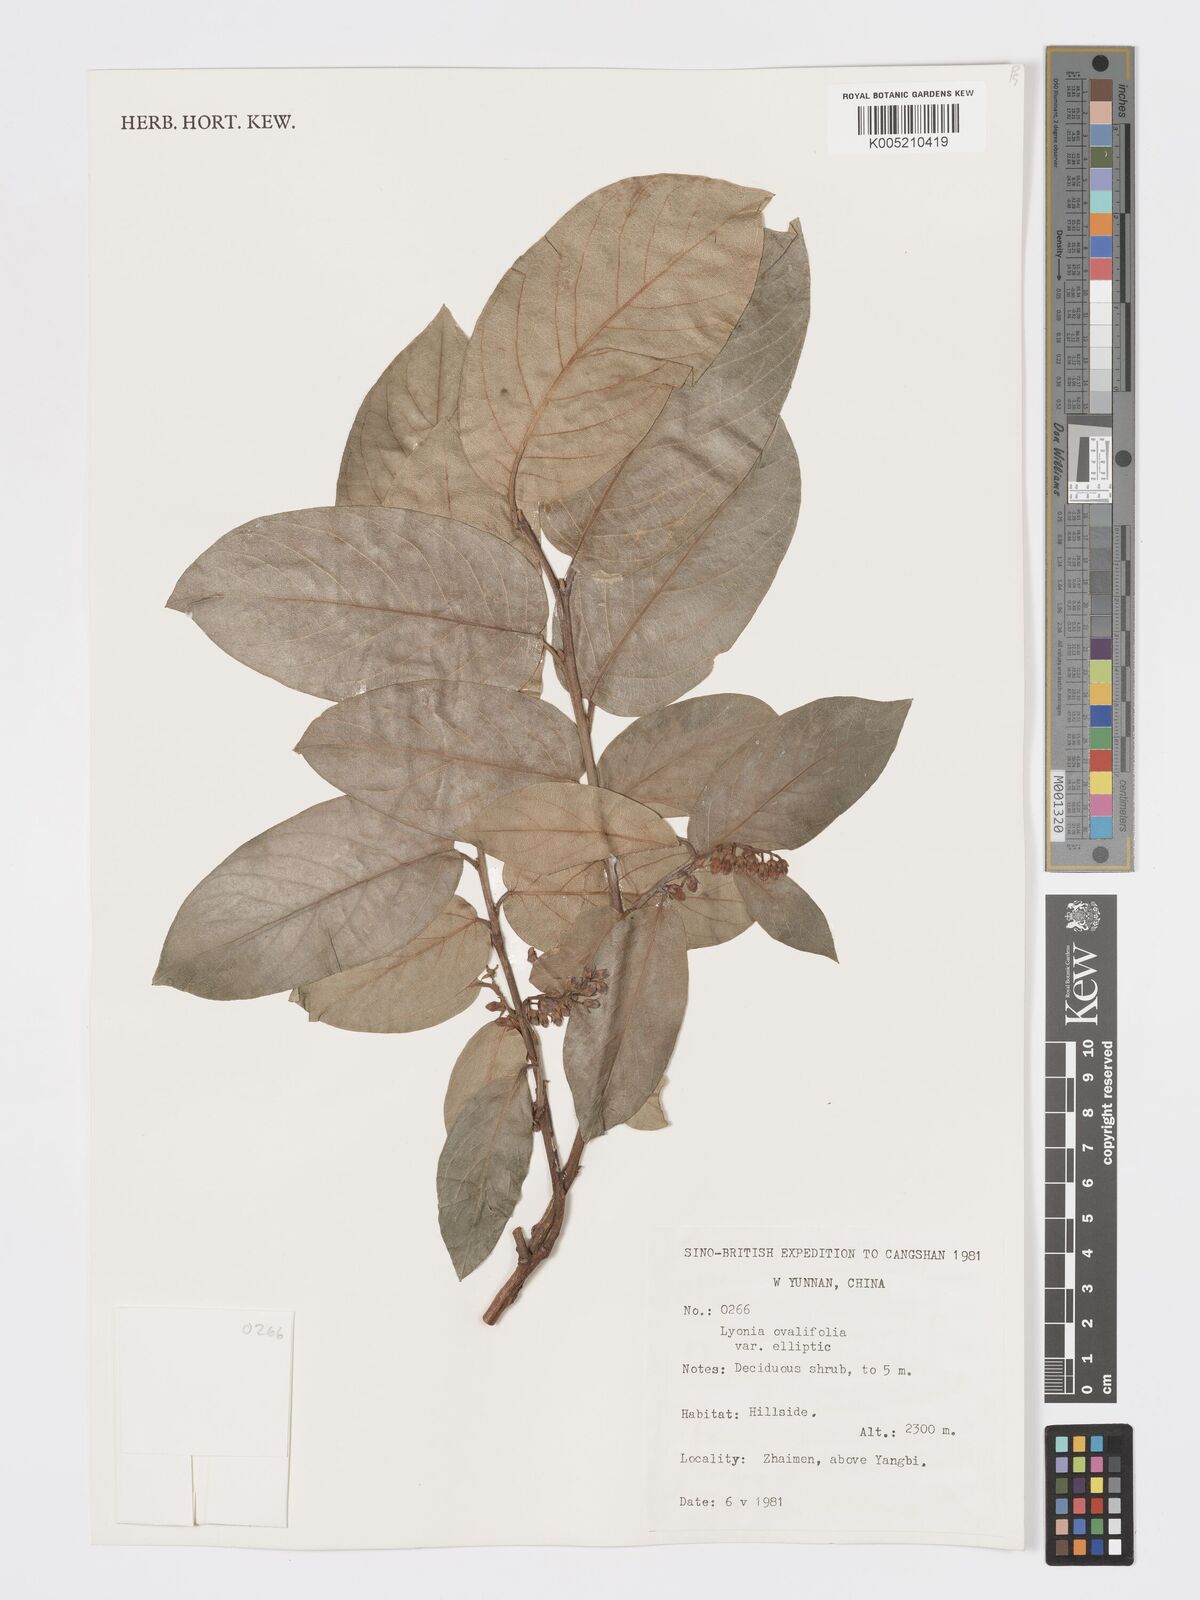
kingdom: Plantae
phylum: Tracheophyta
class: Magnoliopsida
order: Ericales
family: Ericaceae
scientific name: Ericaceae
